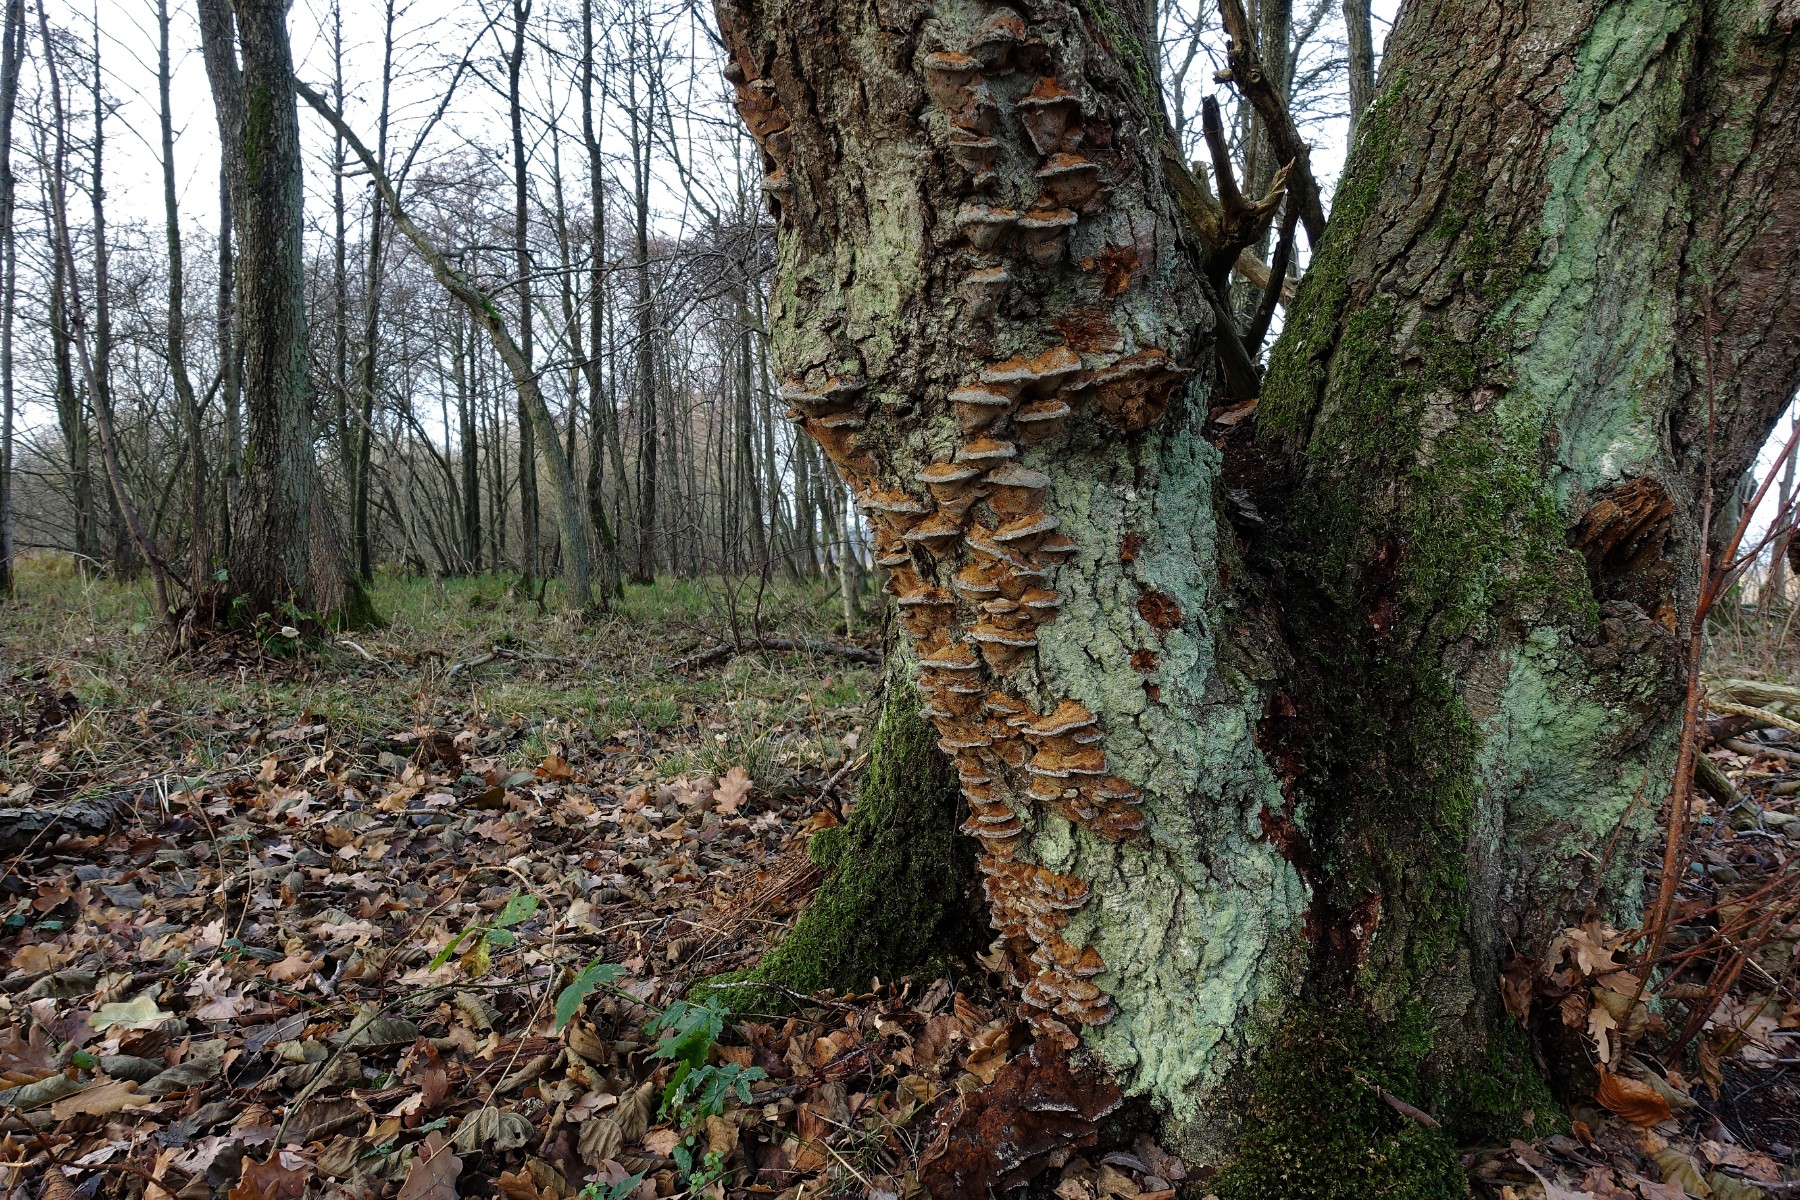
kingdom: Fungi
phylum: Basidiomycota
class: Agaricomycetes
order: Hymenochaetales
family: Hymenochaetaceae
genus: Xanthoporia
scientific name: Xanthoporia radiata
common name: elle-spejlporesvamp
